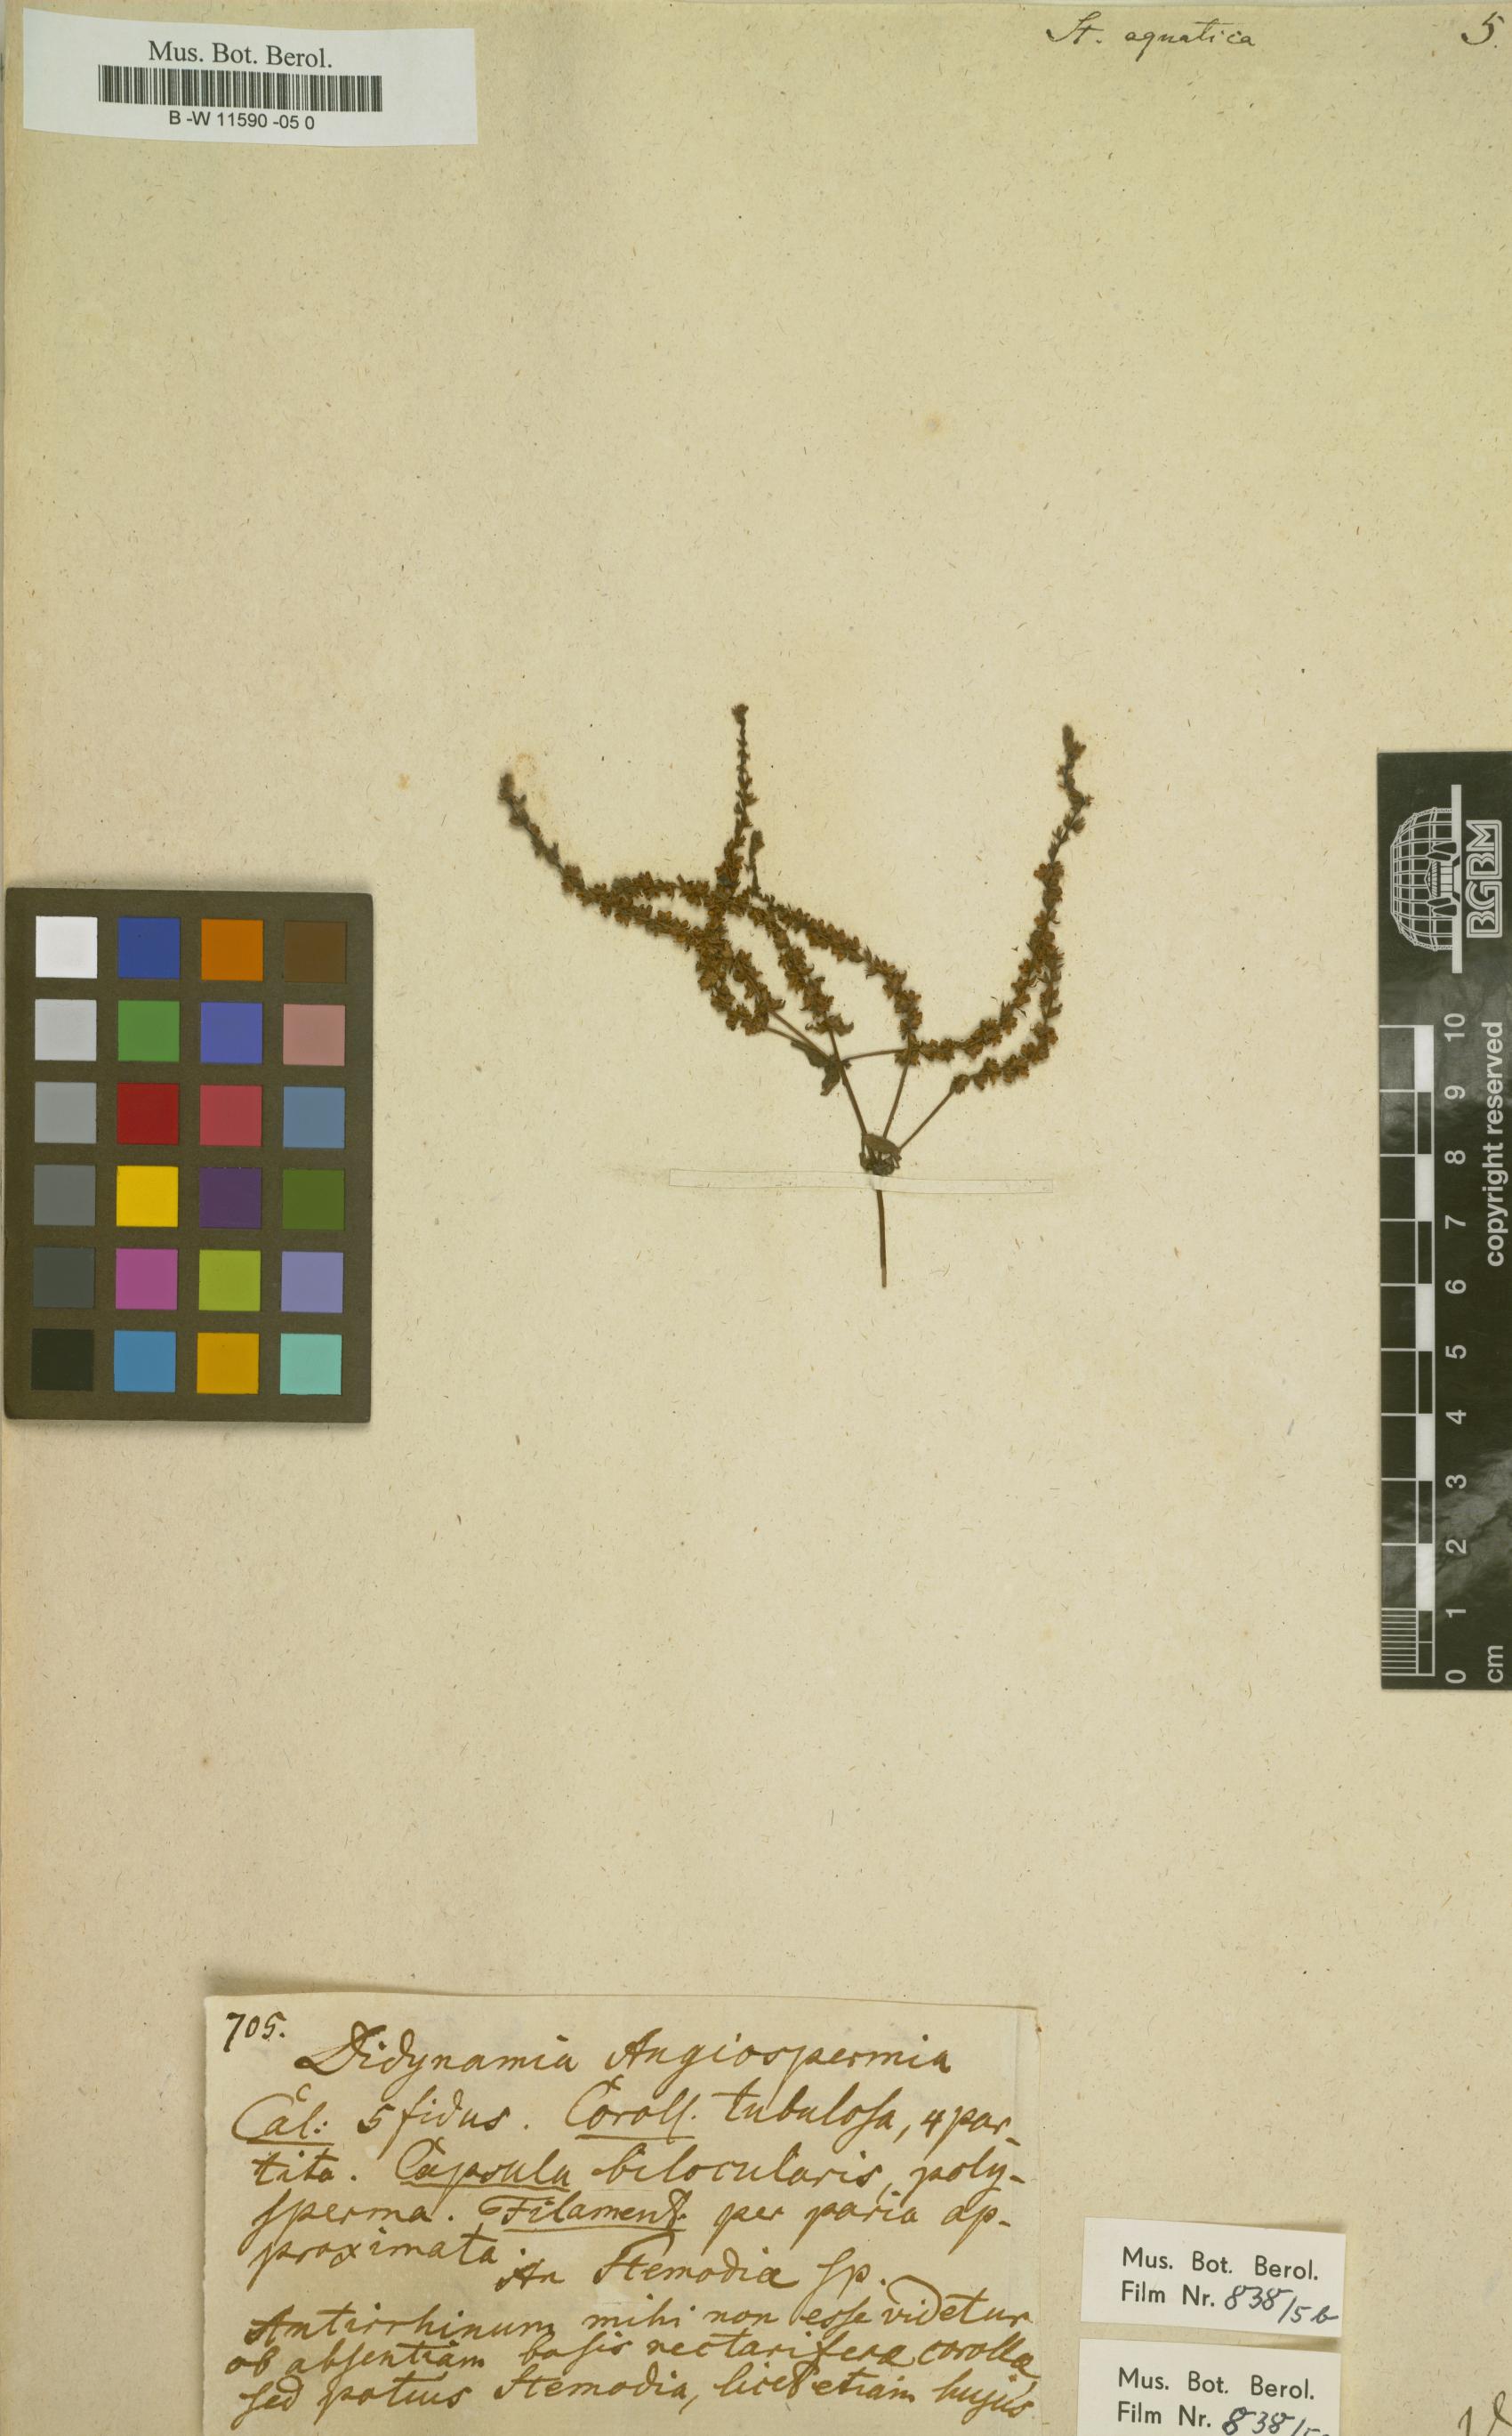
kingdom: Plantae
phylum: Tracheophyta
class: Magnoliopsida
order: Lamiales
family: Plantaginaceae
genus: Limnophila
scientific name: Limnophila polystachya
